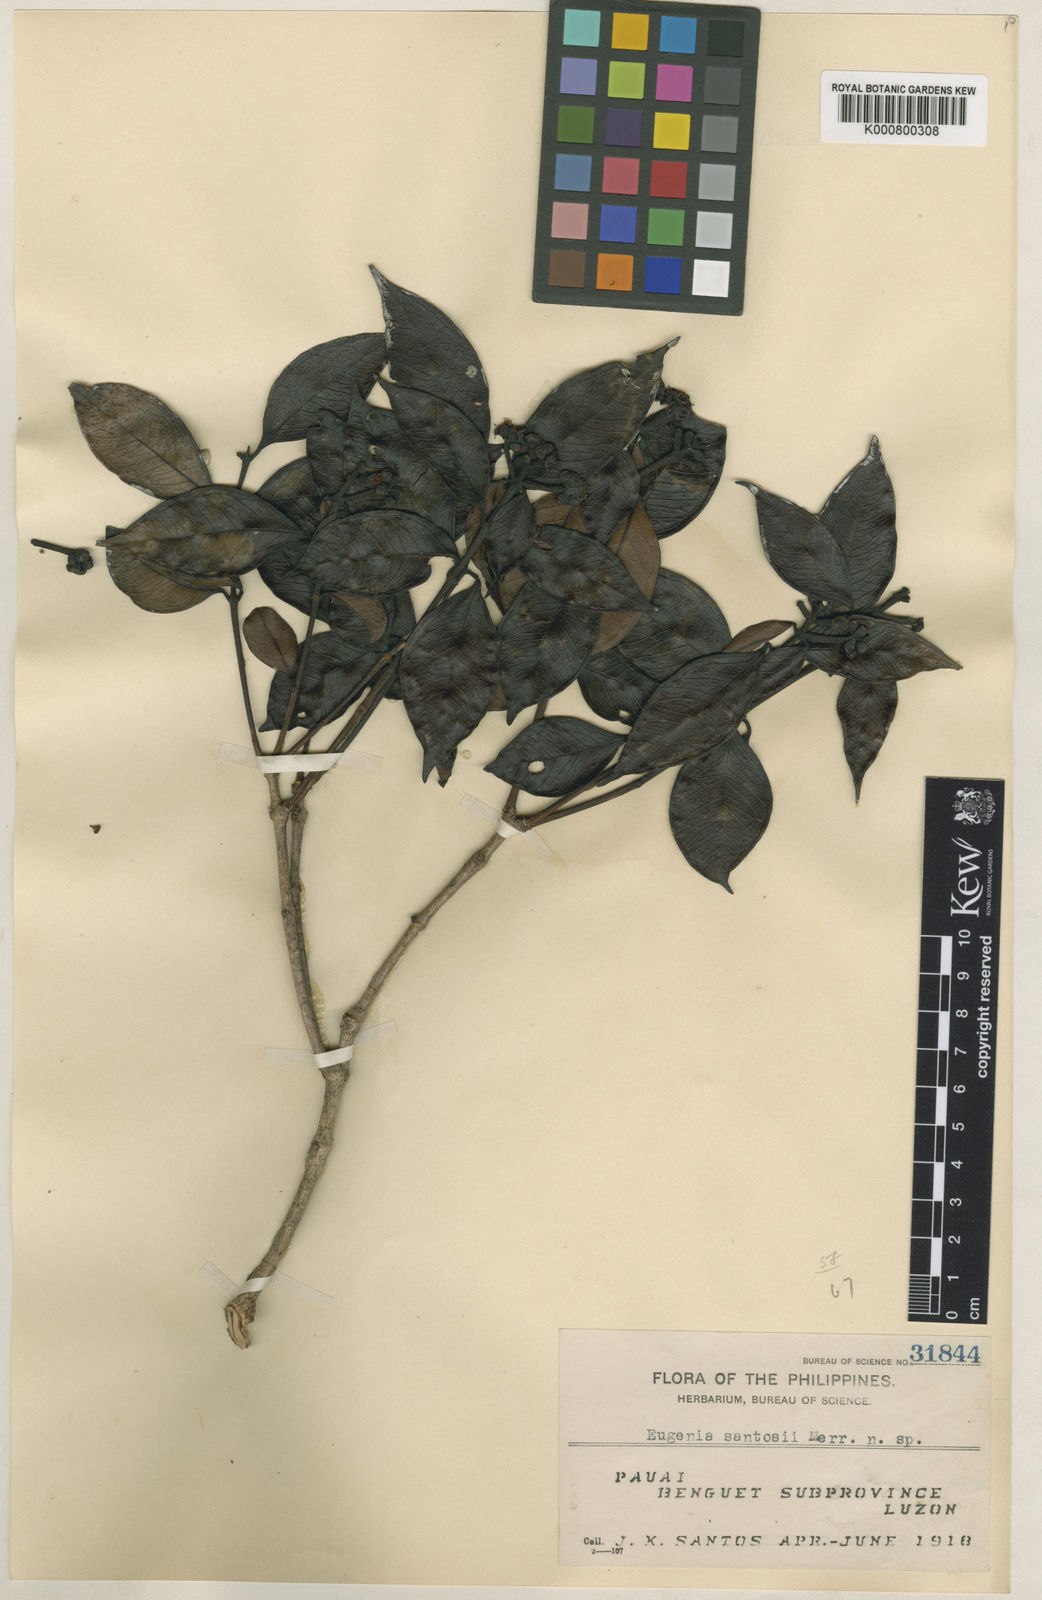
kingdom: Plantae
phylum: Tracheophyta
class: Magnoliopsida
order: Myrtales
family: Myrtaceae
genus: Syzygium
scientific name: Syzygium santosii
